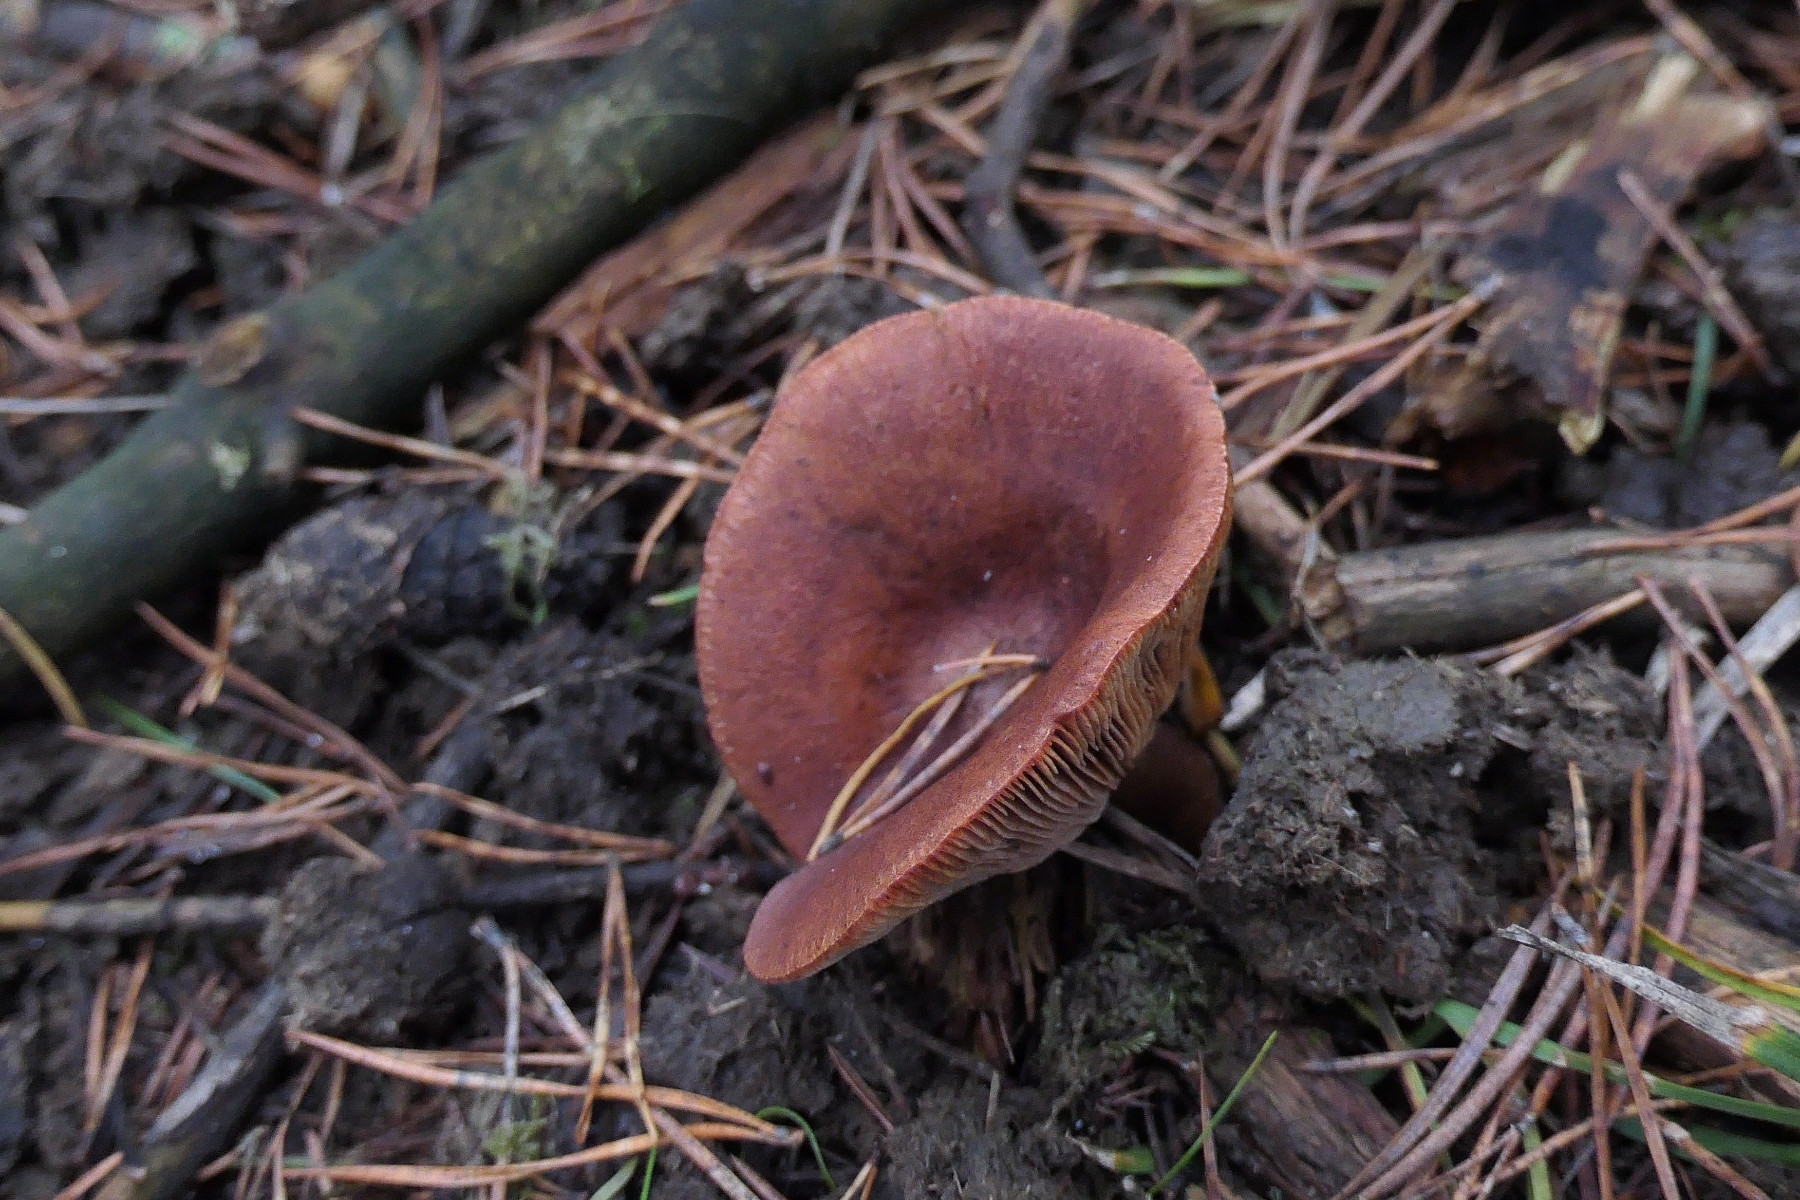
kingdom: Fungi
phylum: Basidiomycota
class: Agaricomycetes
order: Russulales
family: Russulaceae
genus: Lactarius
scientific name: Lactarius rufus
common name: rødbrun mælkehat
